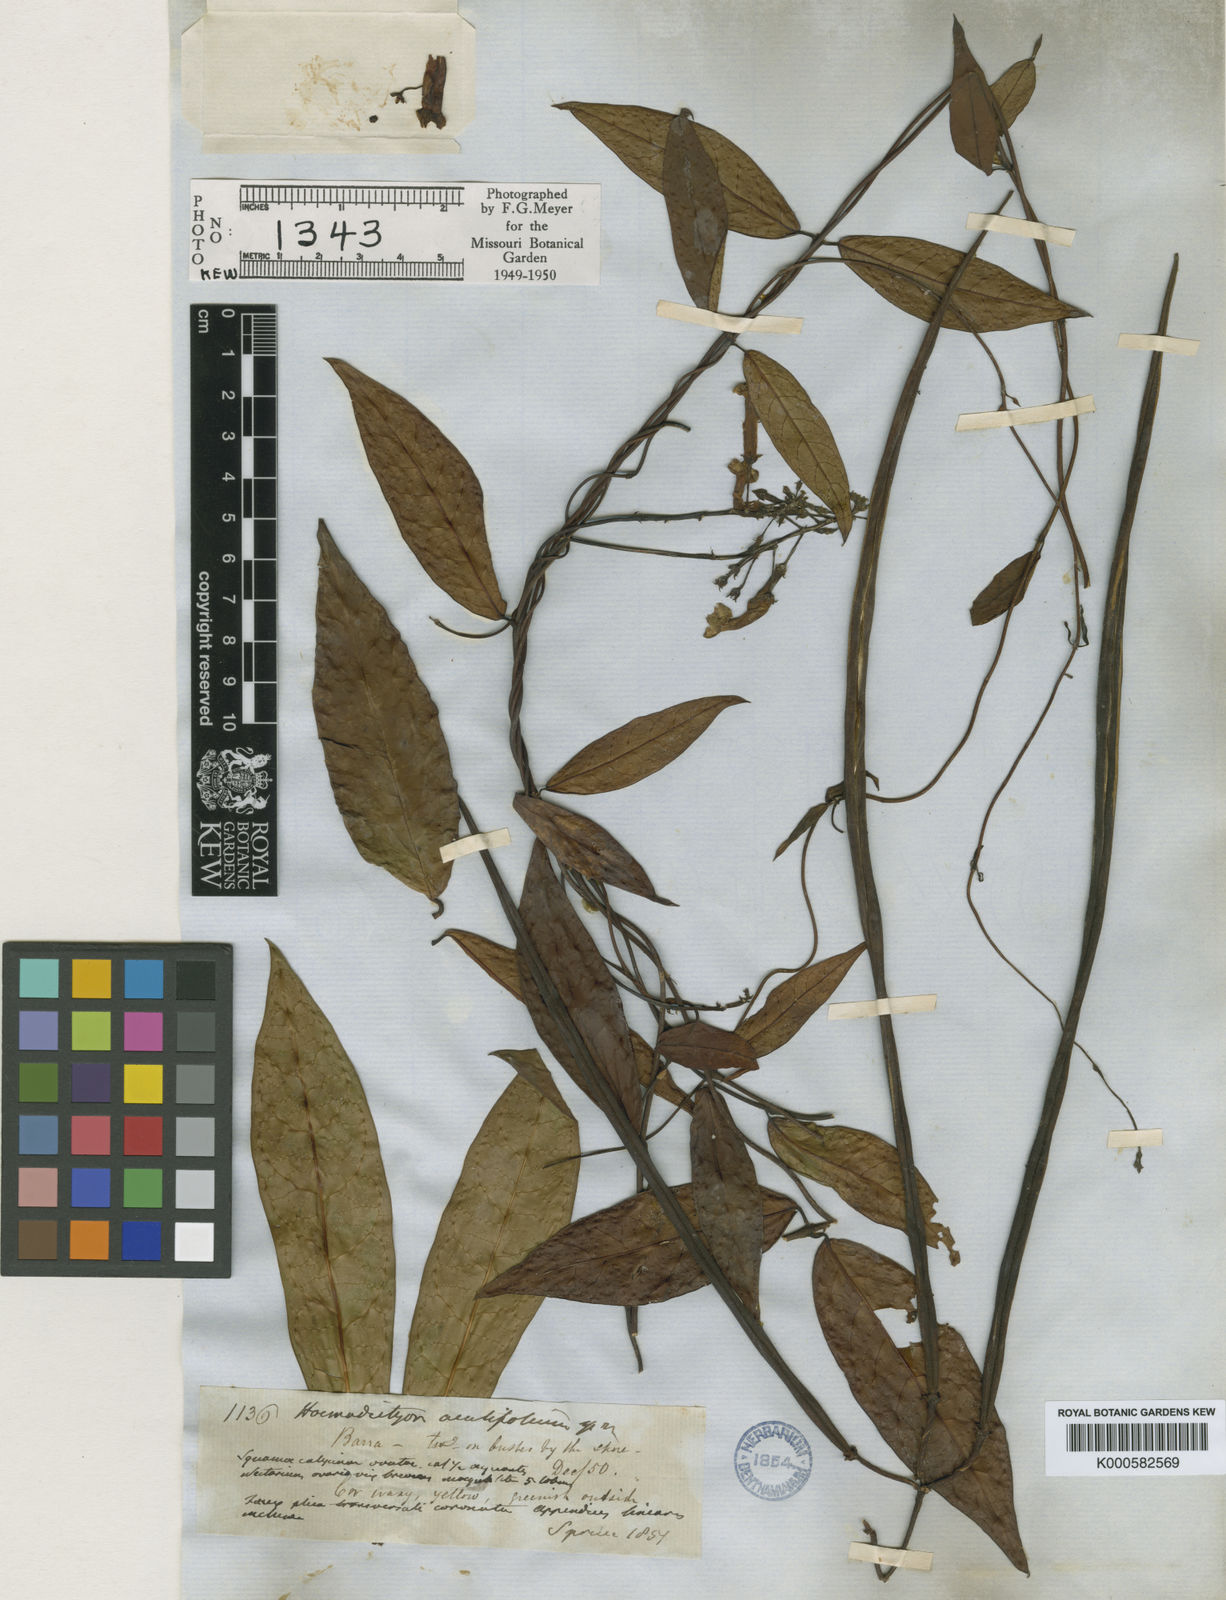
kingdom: Plantae
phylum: Tracheophyta
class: Magnoliopsida
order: Gentianales
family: Apocynaceae
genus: Prestonia
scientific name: Prestonia quinquangularis
